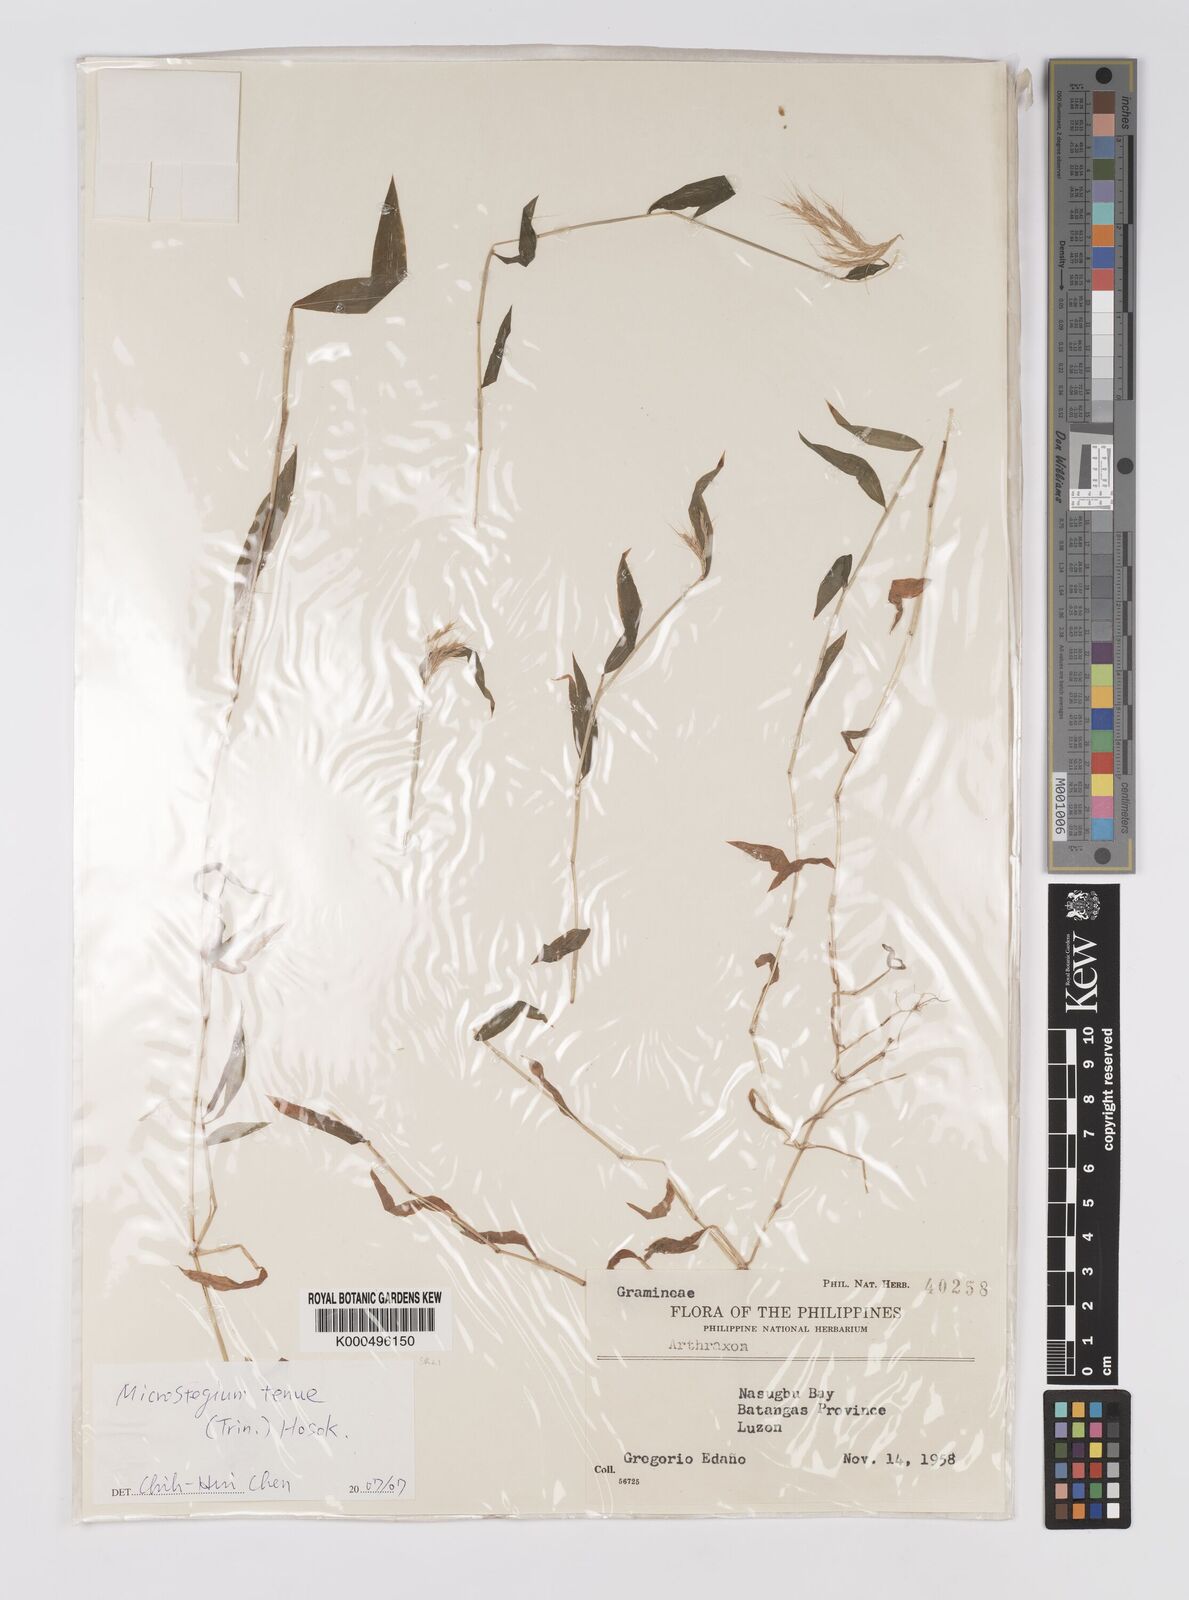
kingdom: Plantae
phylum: Tracheophyta
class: Liliopsida
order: Poales
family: Poaceae
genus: Microstegium
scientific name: Microstegium tenue
